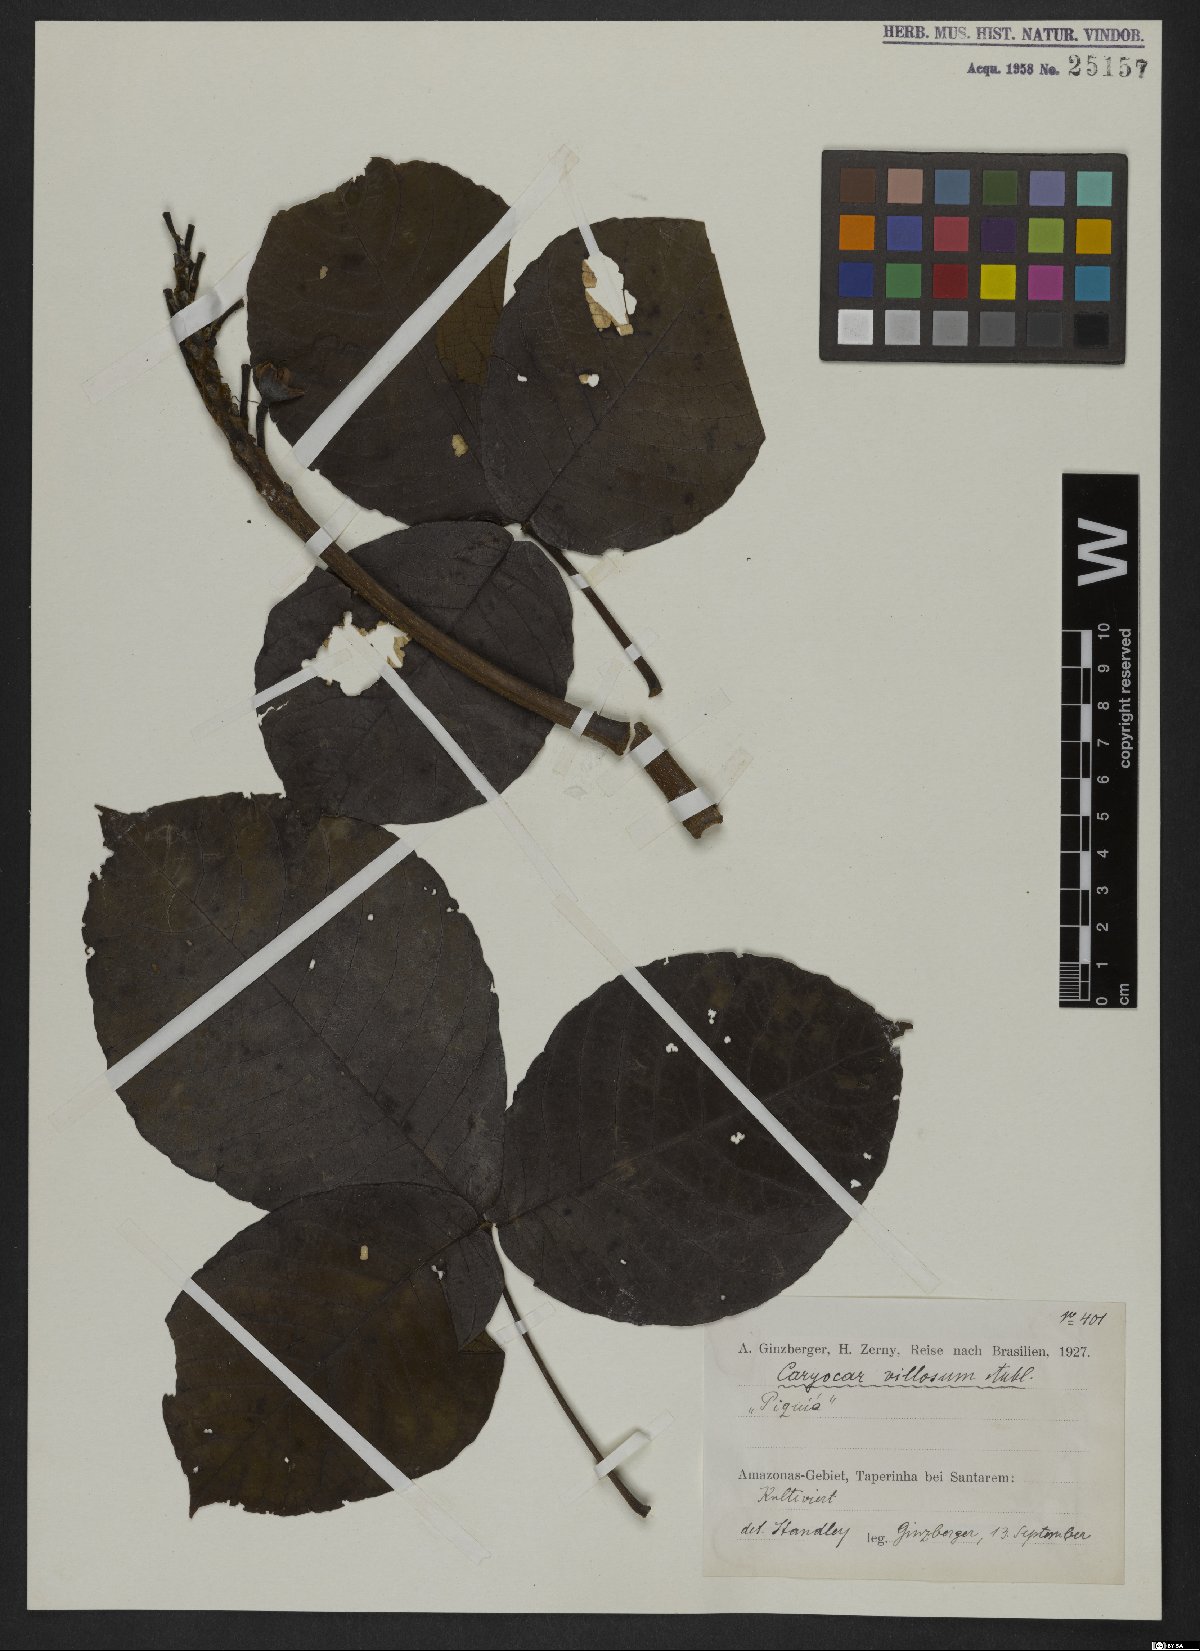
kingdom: Plantae
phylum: Tracheophyta
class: Magnoliopsida
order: Malpighiales
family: Caryocaraceae
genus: Caryocar
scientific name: Caryocar villosum
